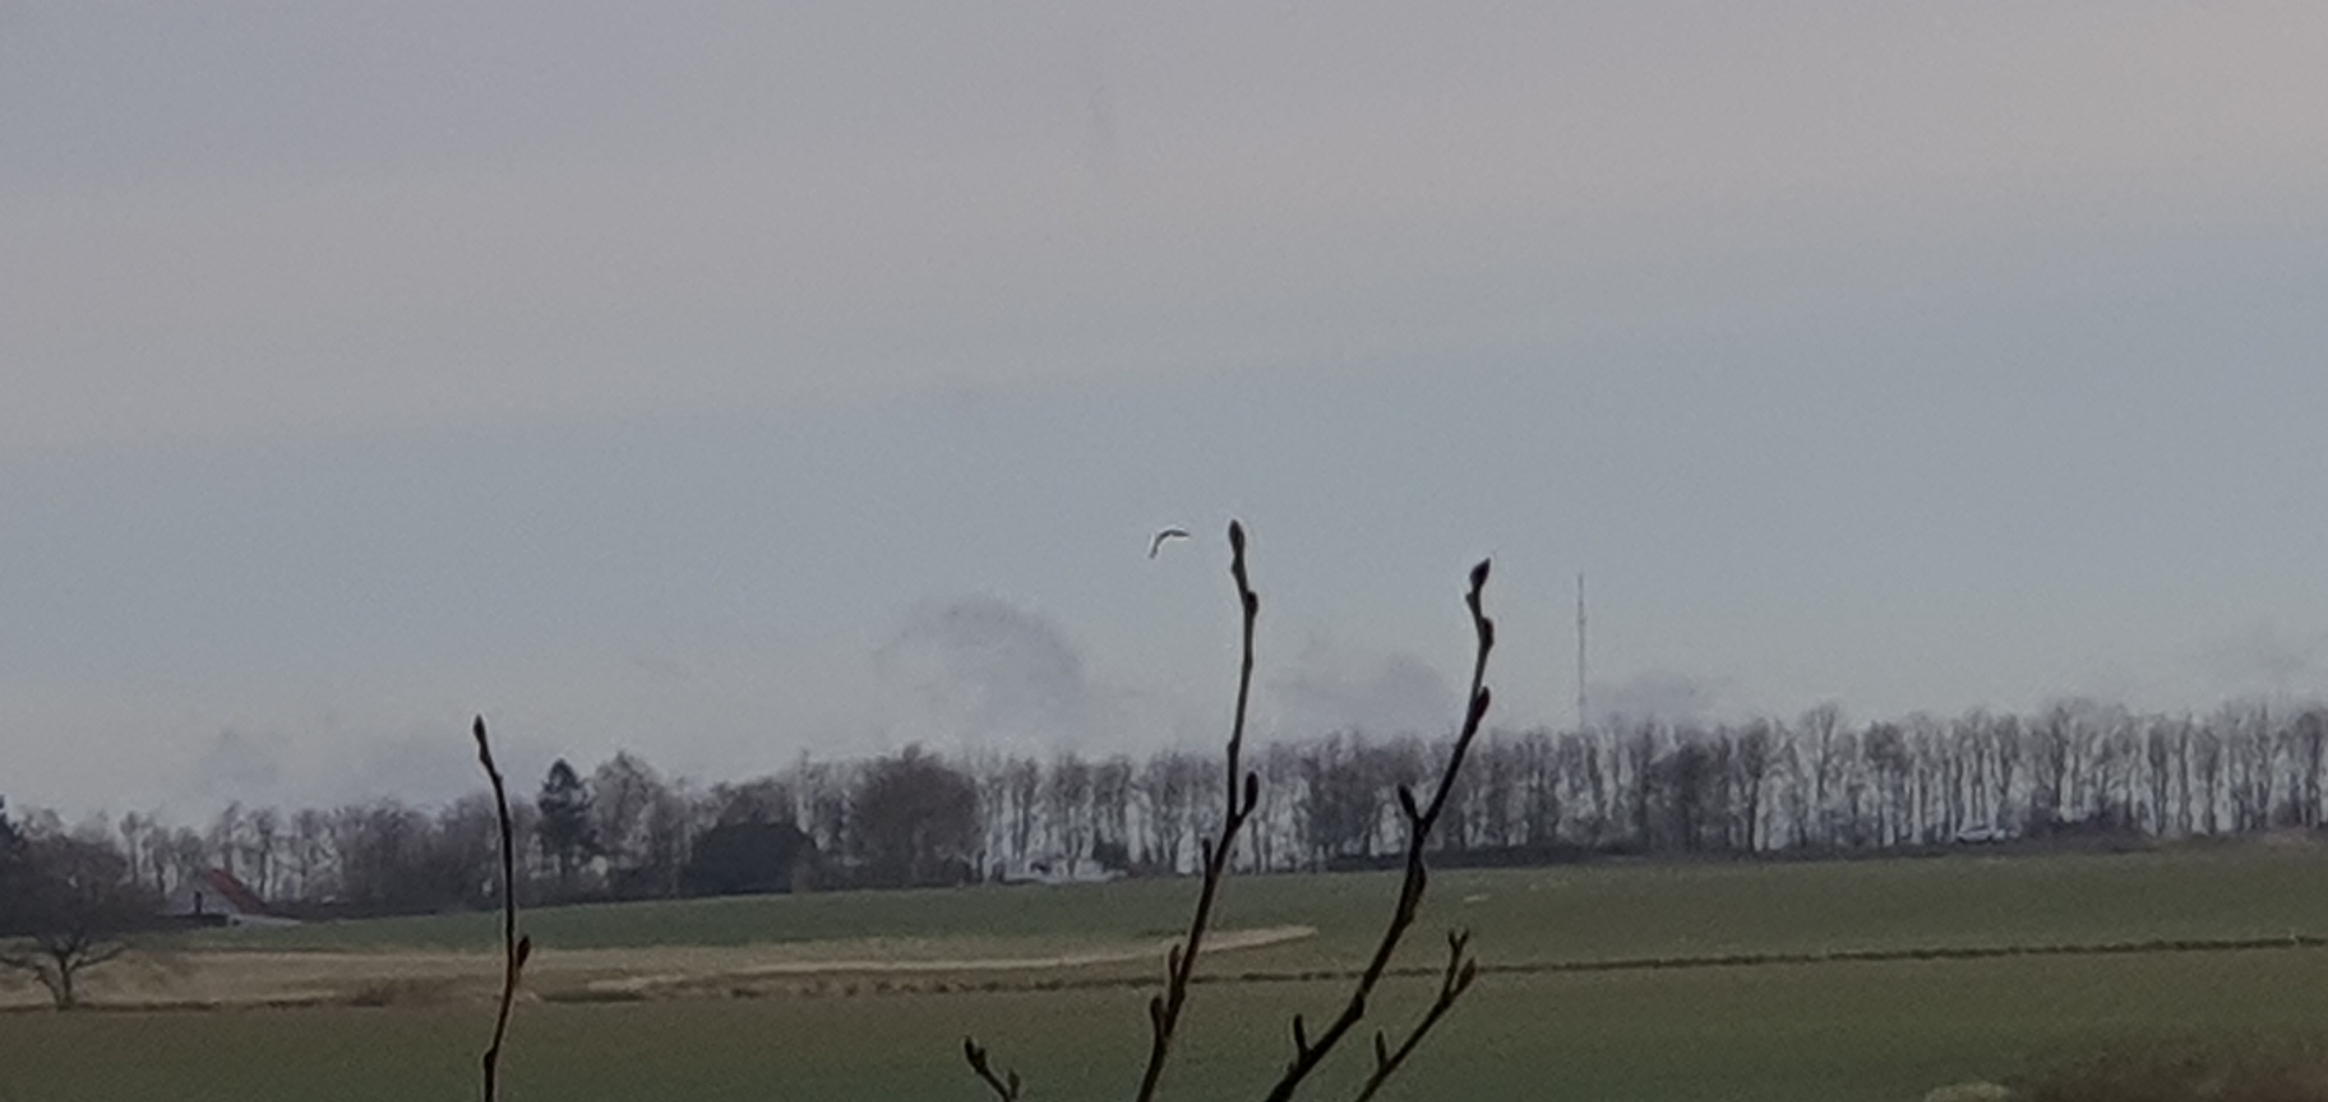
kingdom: Animalia
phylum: Chordata
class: Aves
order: Charadriiformes
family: Charadriidae
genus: Vanellus
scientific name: Vanellus vanellus
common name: Vibe
